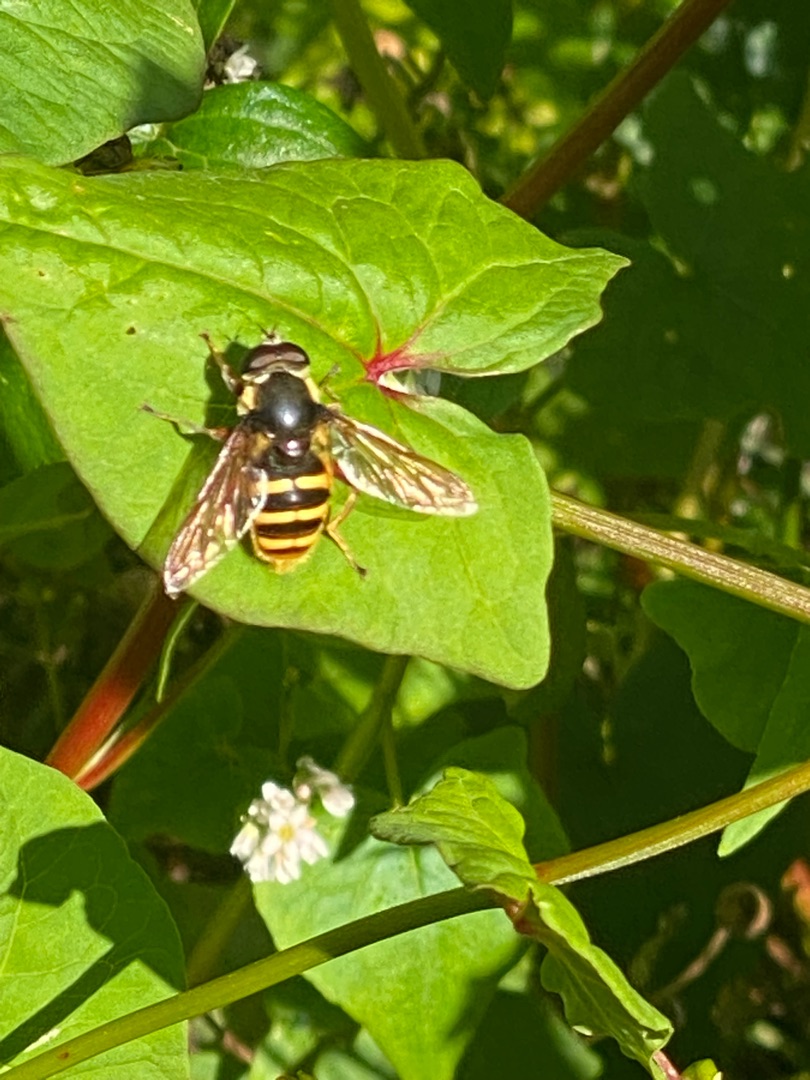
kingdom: Animalia
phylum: Arthropoda
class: Insecta
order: Diptera
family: Syrphidae
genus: Sericomyia
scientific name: Sericomyia silentis
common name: Tørve-silkesvirreflue
